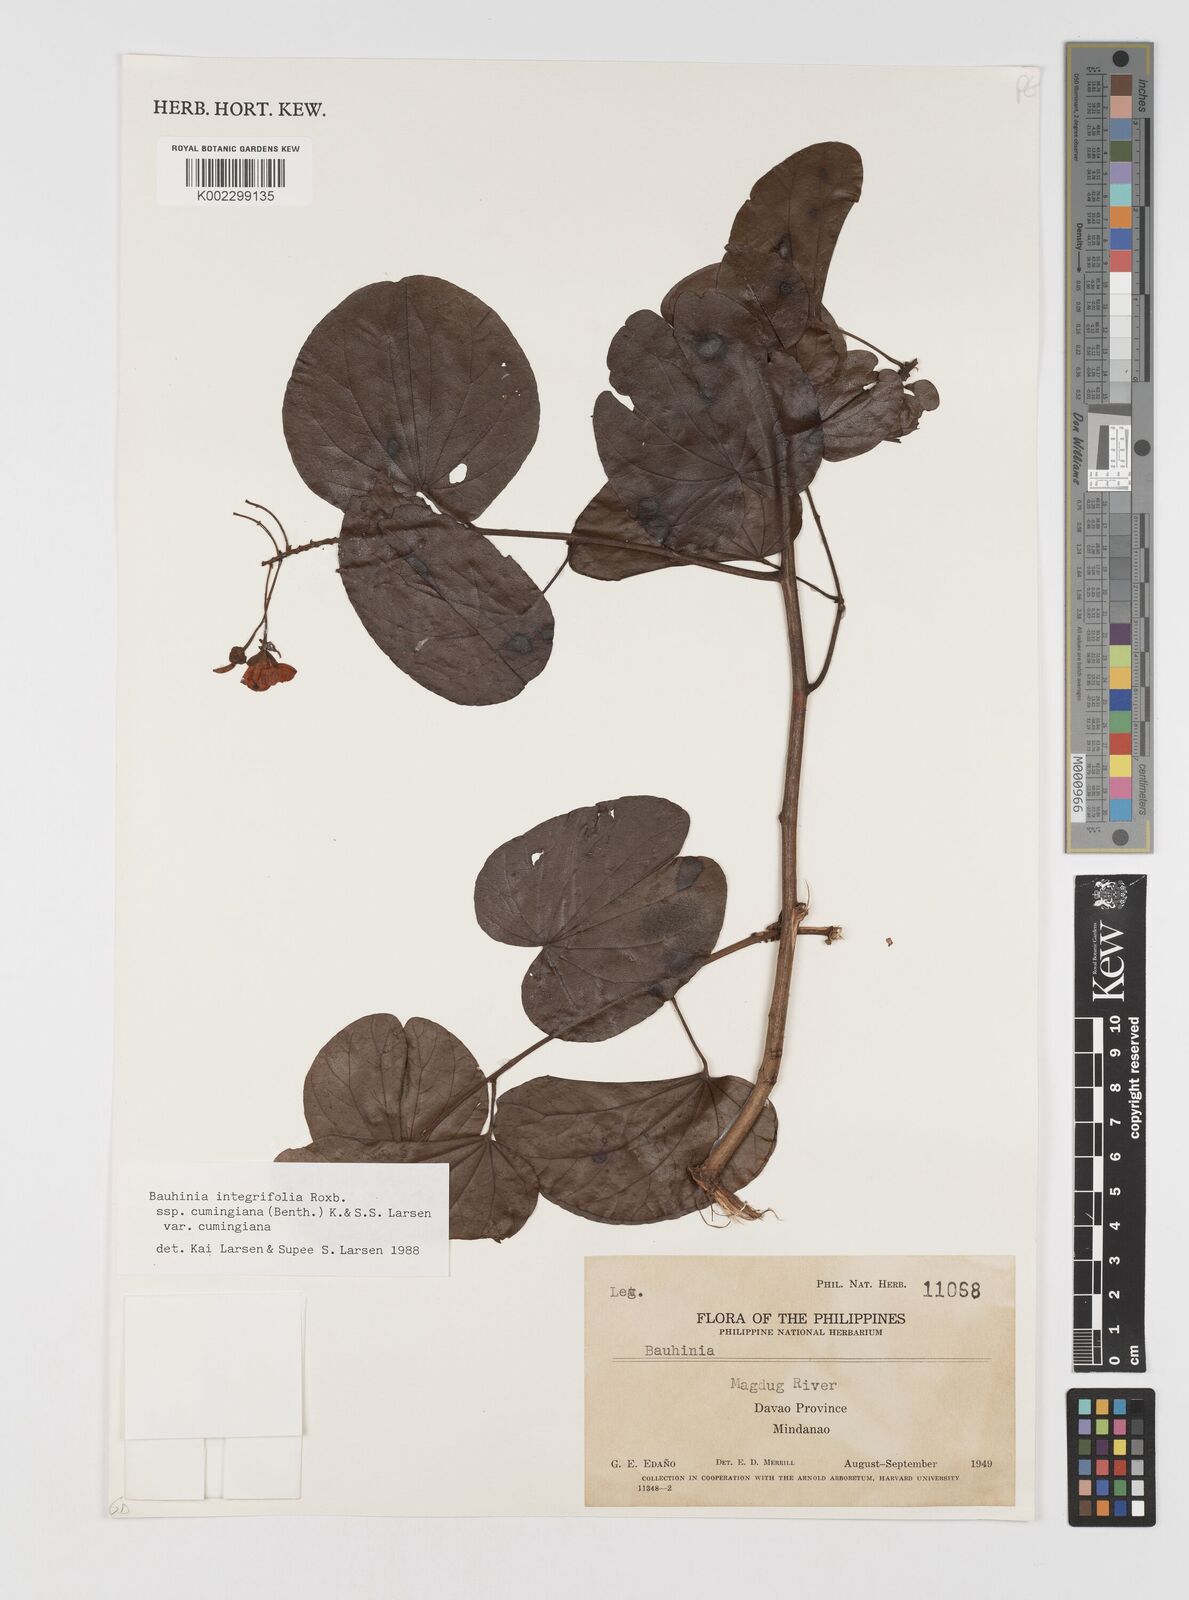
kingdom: Plantae
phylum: Tracheophyta
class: Magnoliopsida
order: Fabales
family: Fabaceae
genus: Phanera
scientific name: Phanera integrifolia
